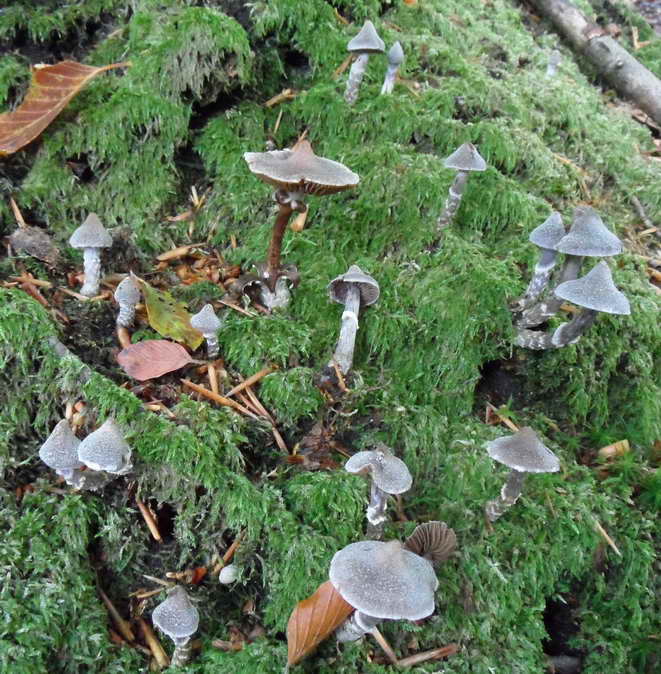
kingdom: Fungi
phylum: Basidiomycota
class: Agaricomycetes
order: Agaricales
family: Cortinariaceae
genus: Cortinarius
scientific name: Cortinarius
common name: pelargonie-slørhat
